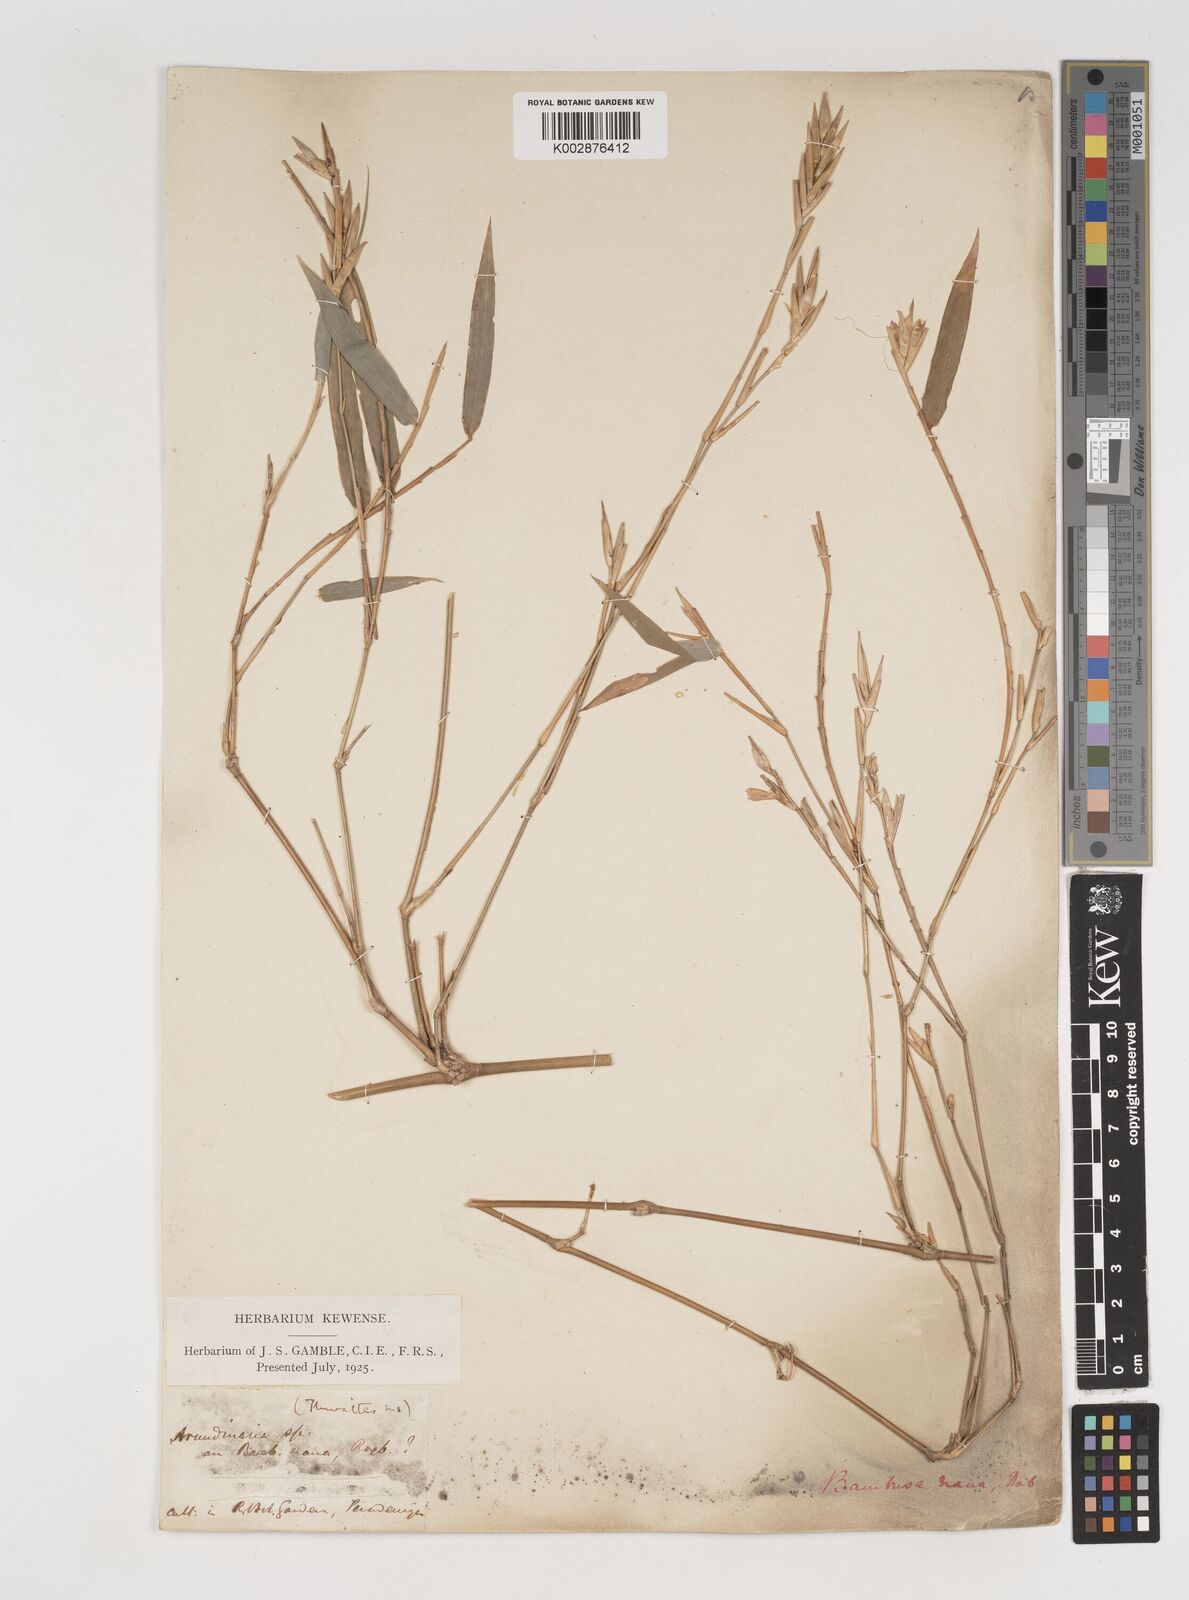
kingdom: Plantae
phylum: Tracheophyta
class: Liliopsida
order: Poales
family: Poaceae
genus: Bambusa
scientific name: Bambusa multiplex
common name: Hedge bamboo
